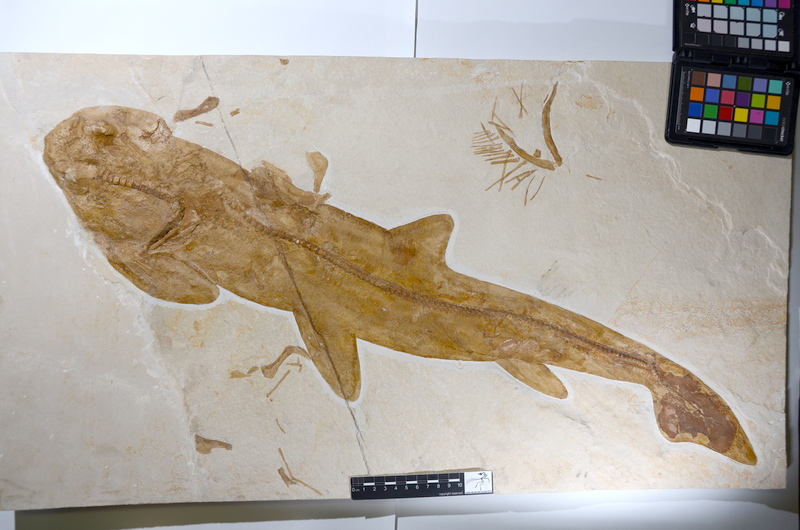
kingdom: Animalia
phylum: Chordata
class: Elasmobranchii
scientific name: Elasmobranchii
